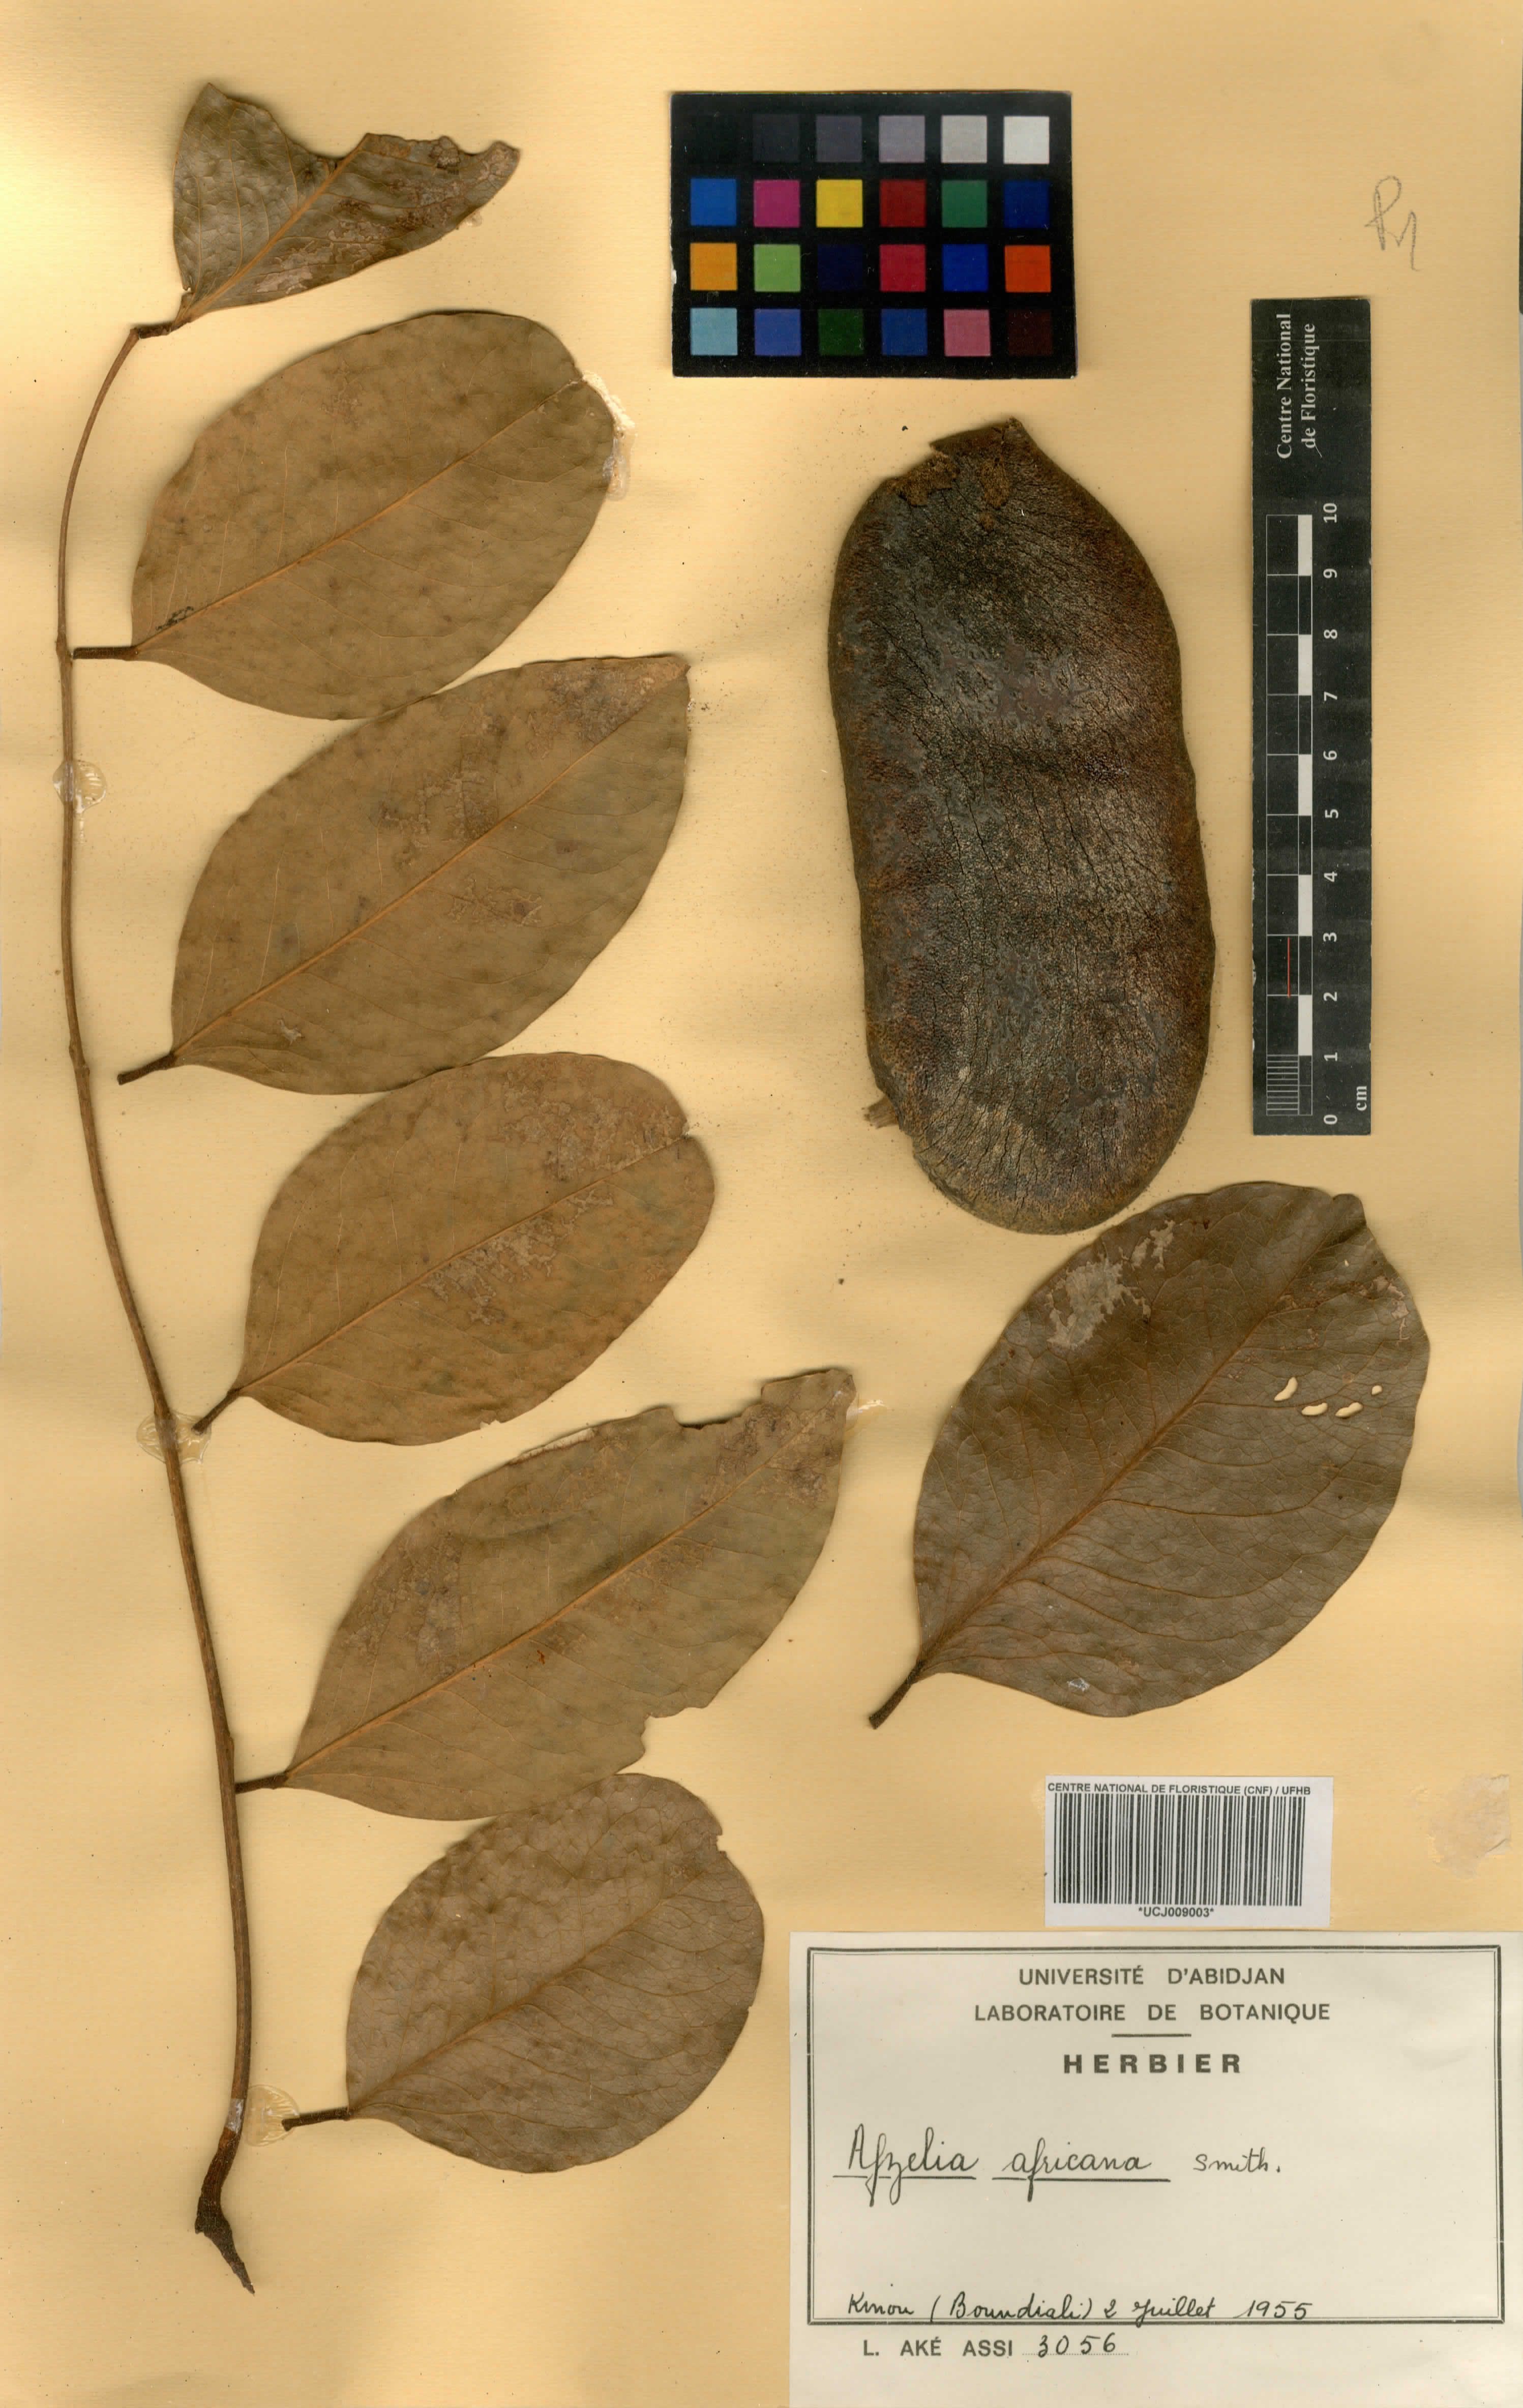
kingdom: Plantae
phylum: Tracheophyta
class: Magnoliopsida
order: Fabales
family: Fabaceae
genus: Afzelia
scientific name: Afzelia africana
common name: African-mahogany
